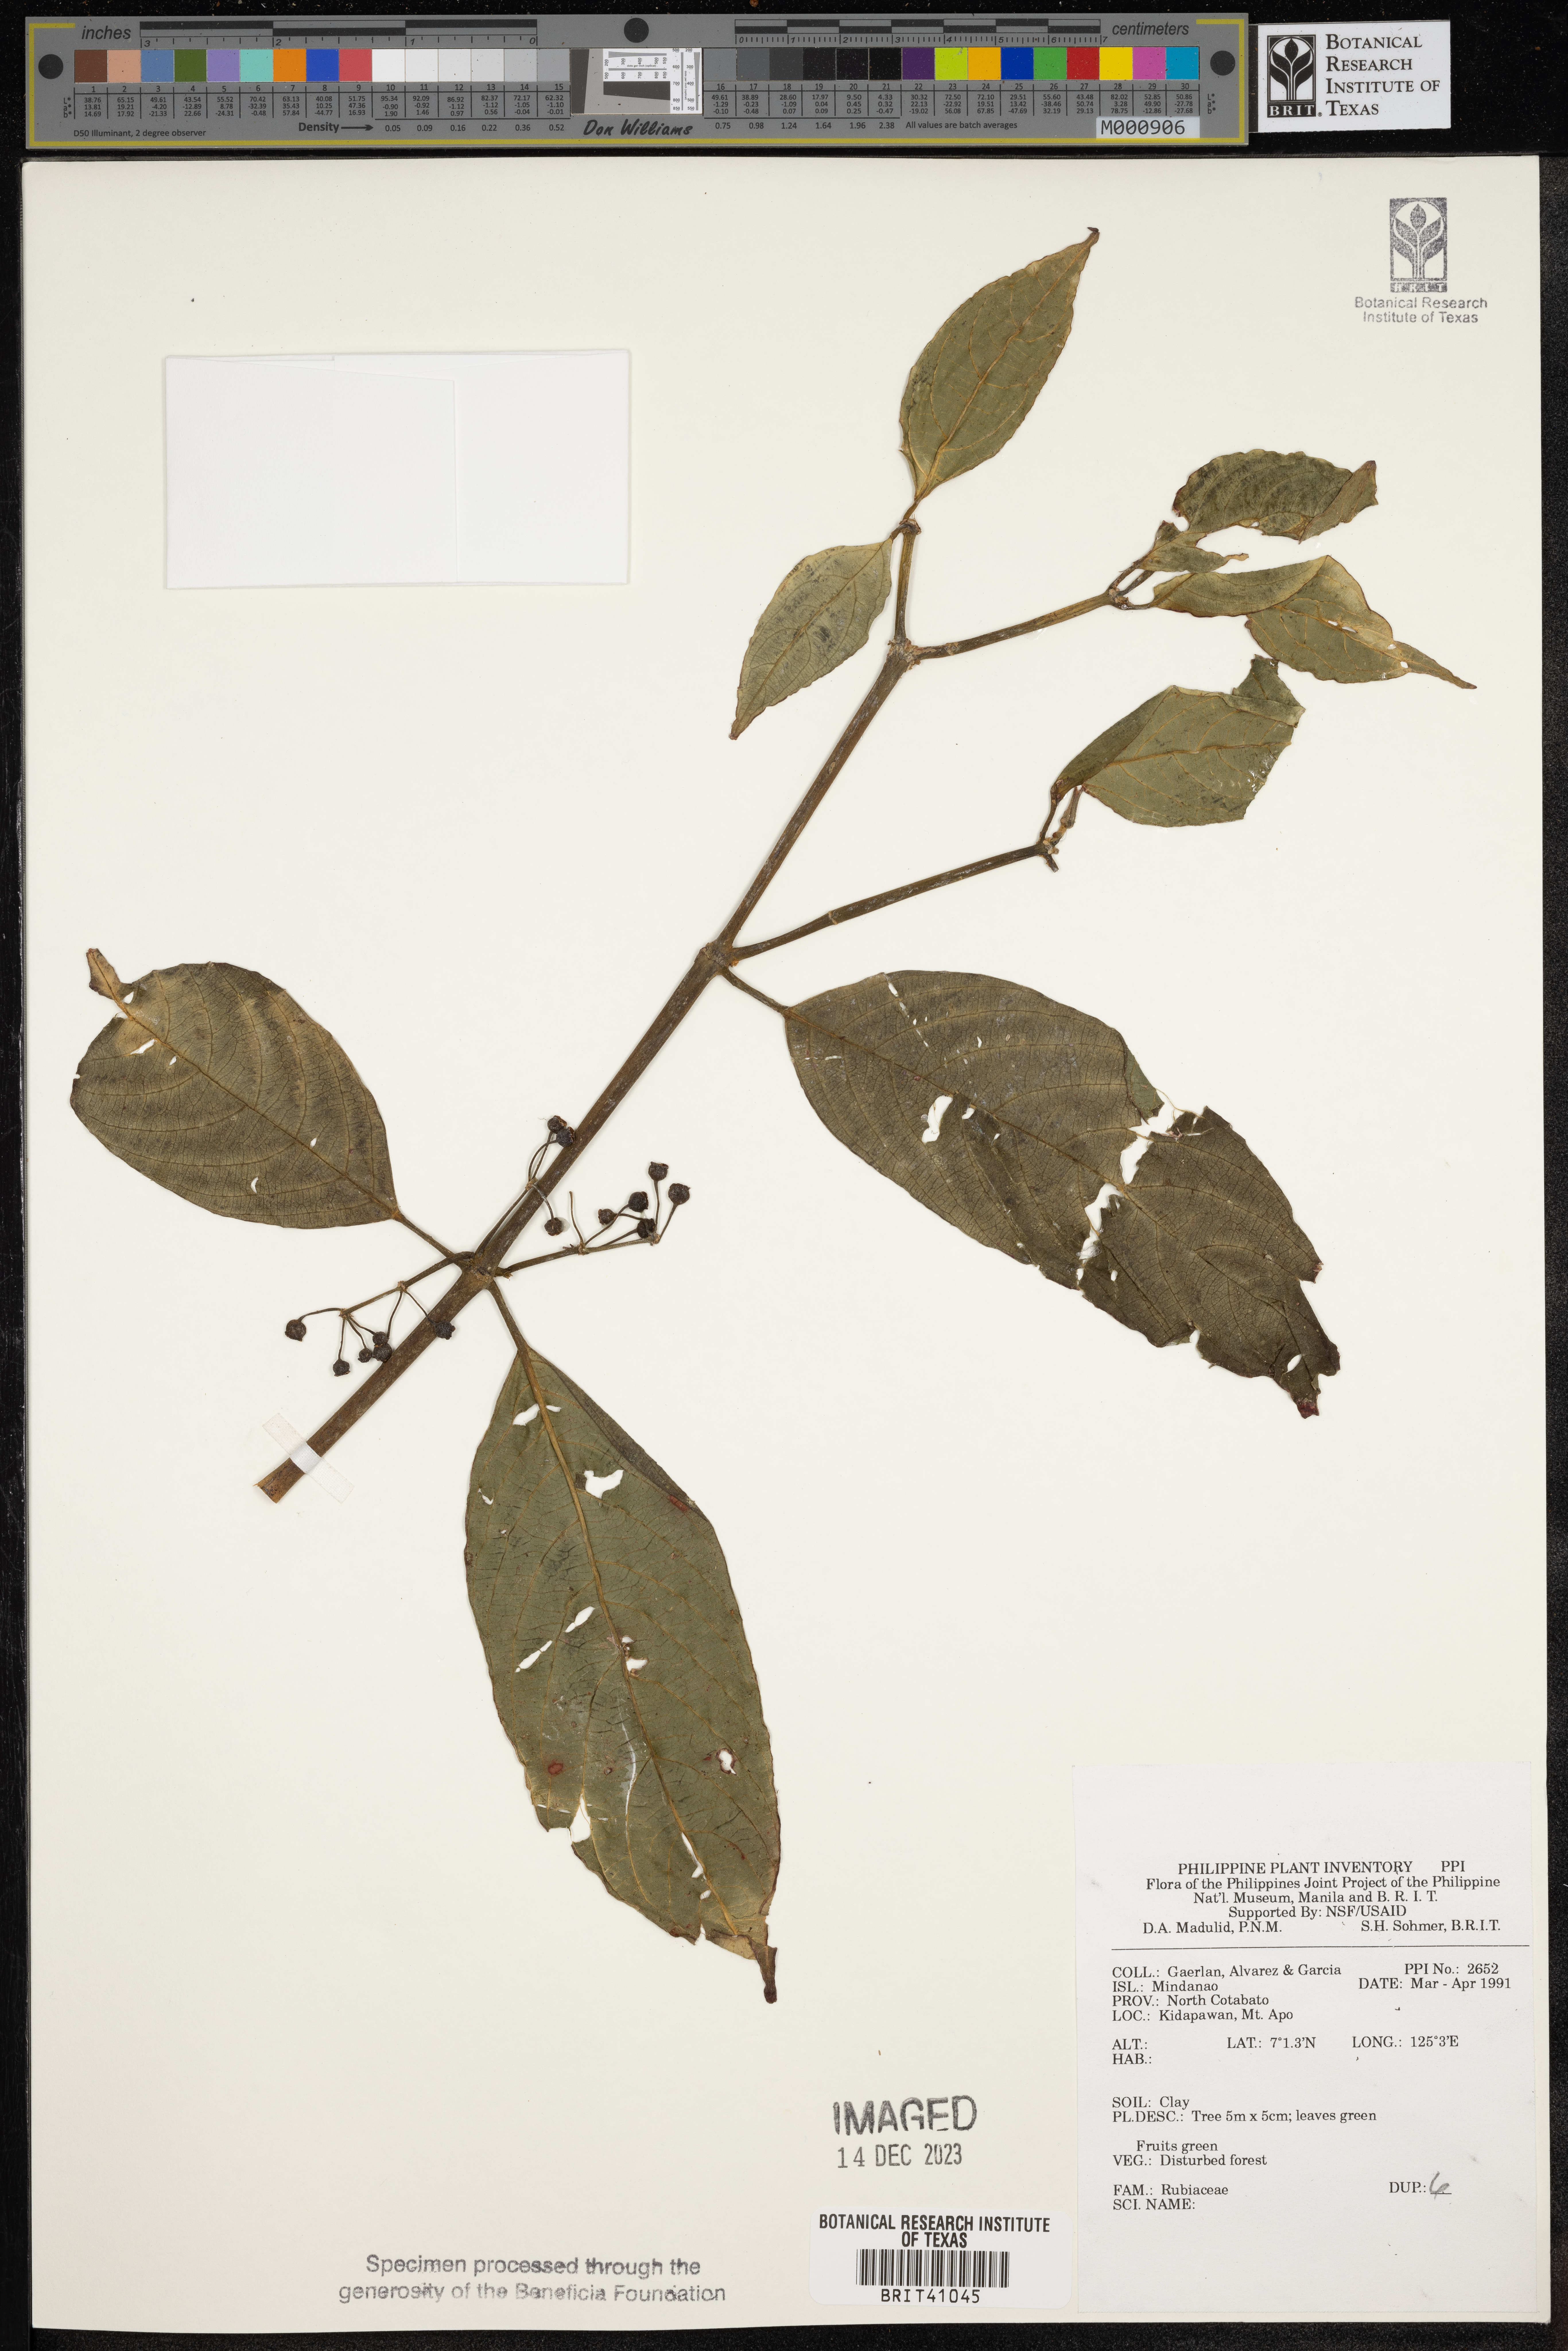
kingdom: Plantae
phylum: Tracheophyta
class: Magnoliopsida
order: Gentianales
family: Rubiaceae
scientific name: Rubiaceae
